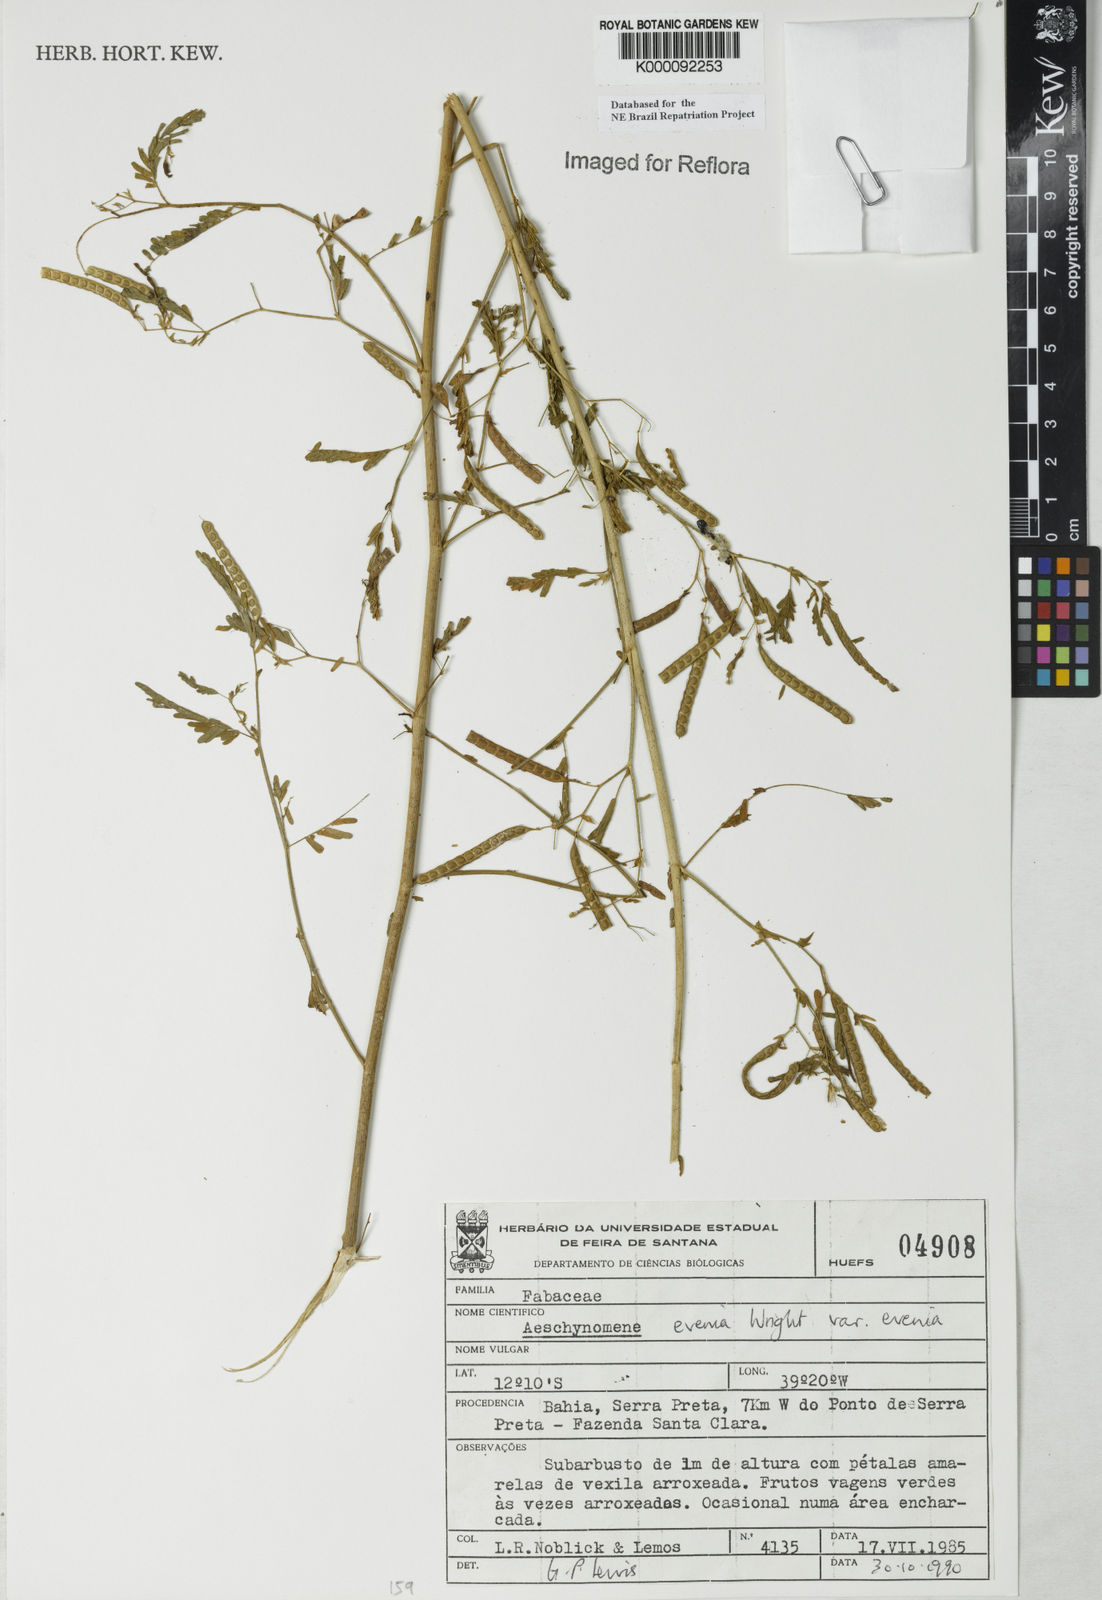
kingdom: Plantae
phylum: Tracheophyta
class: Magnoliopsida
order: Fabales
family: Fabaceae
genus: Aeschynomene
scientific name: Aeschynomene evenia
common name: Shrubby jointvetch
